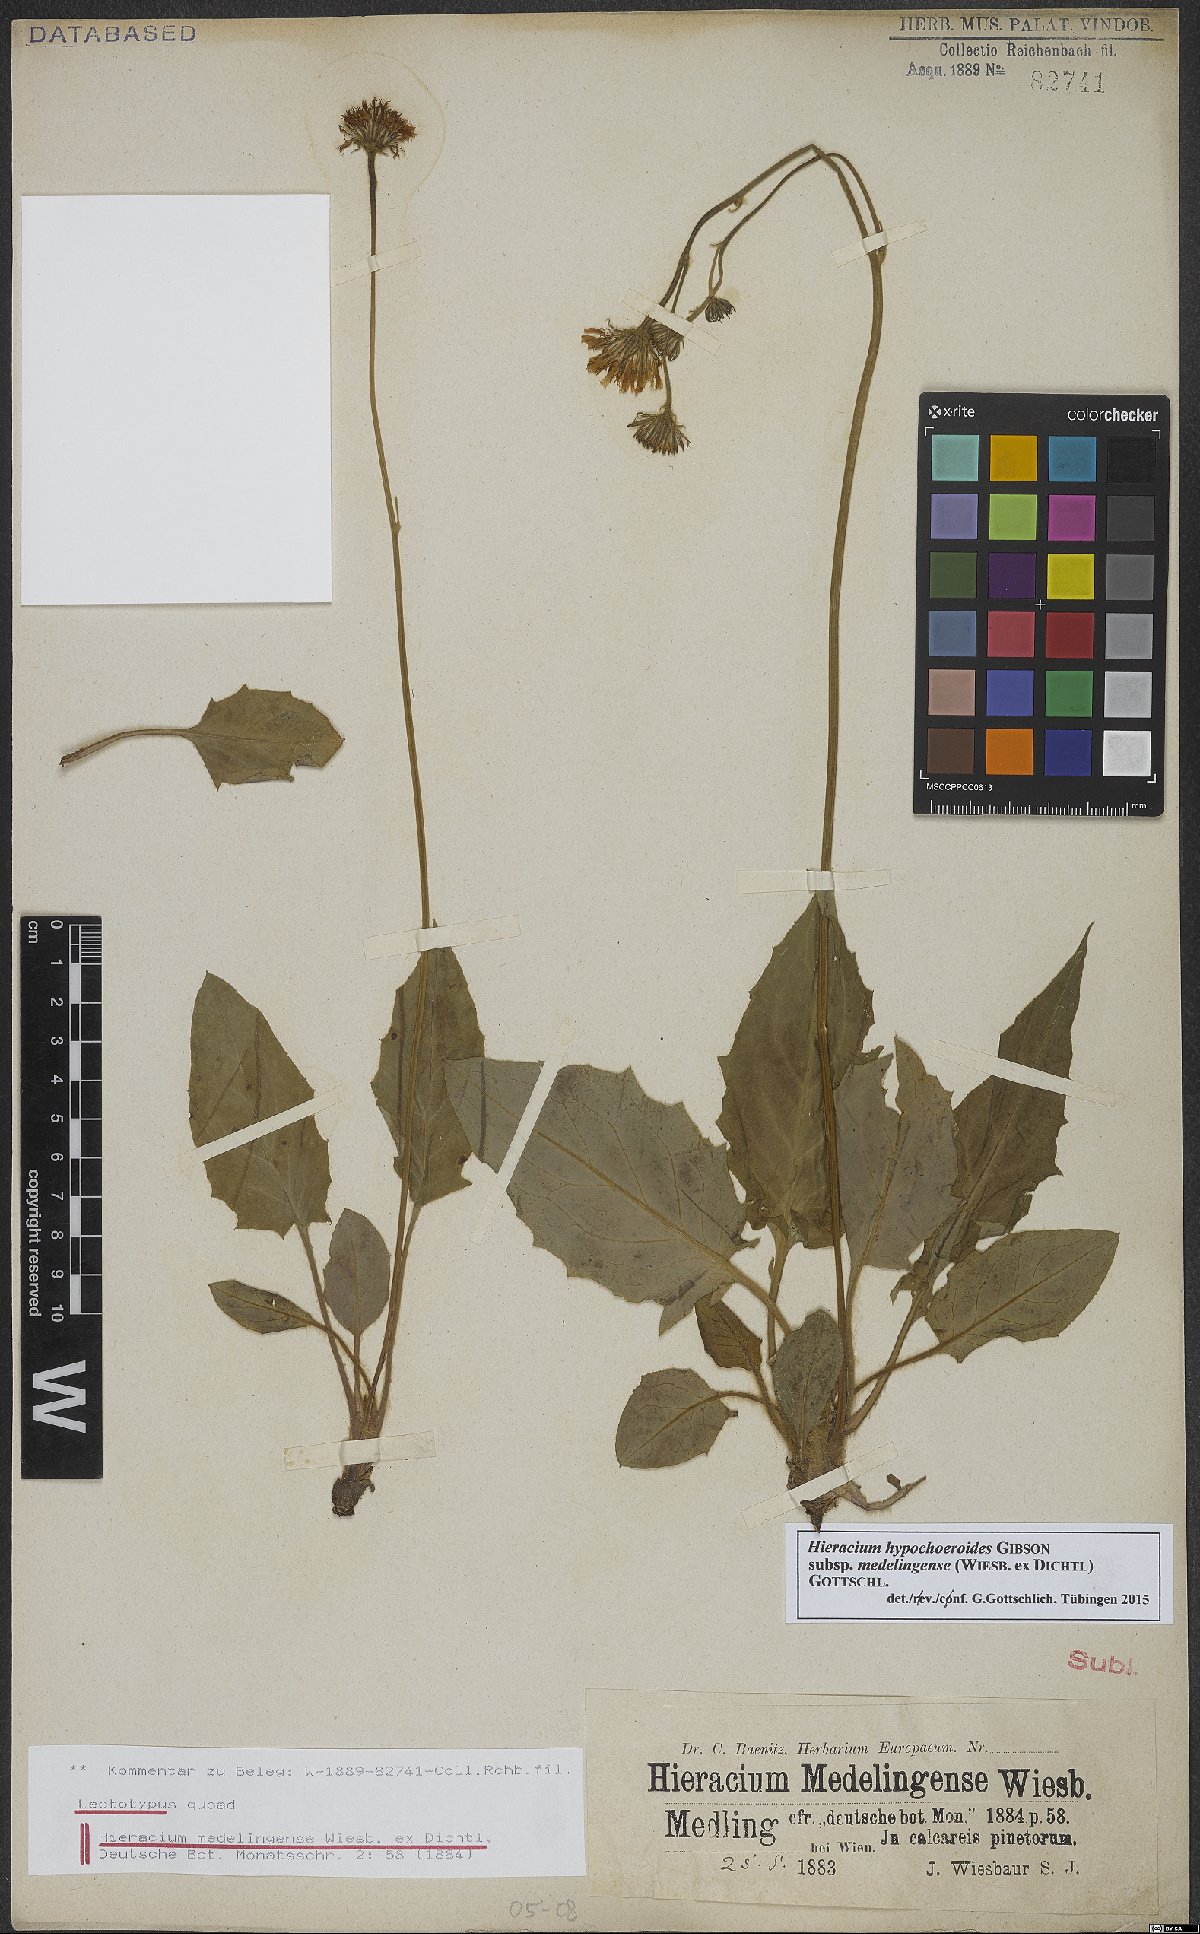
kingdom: Plantae
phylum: Tracheophyta
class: Magnoliopsida
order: Asterales
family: Asteraceae
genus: Hieracium
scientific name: Hieracium hypochoeroides
